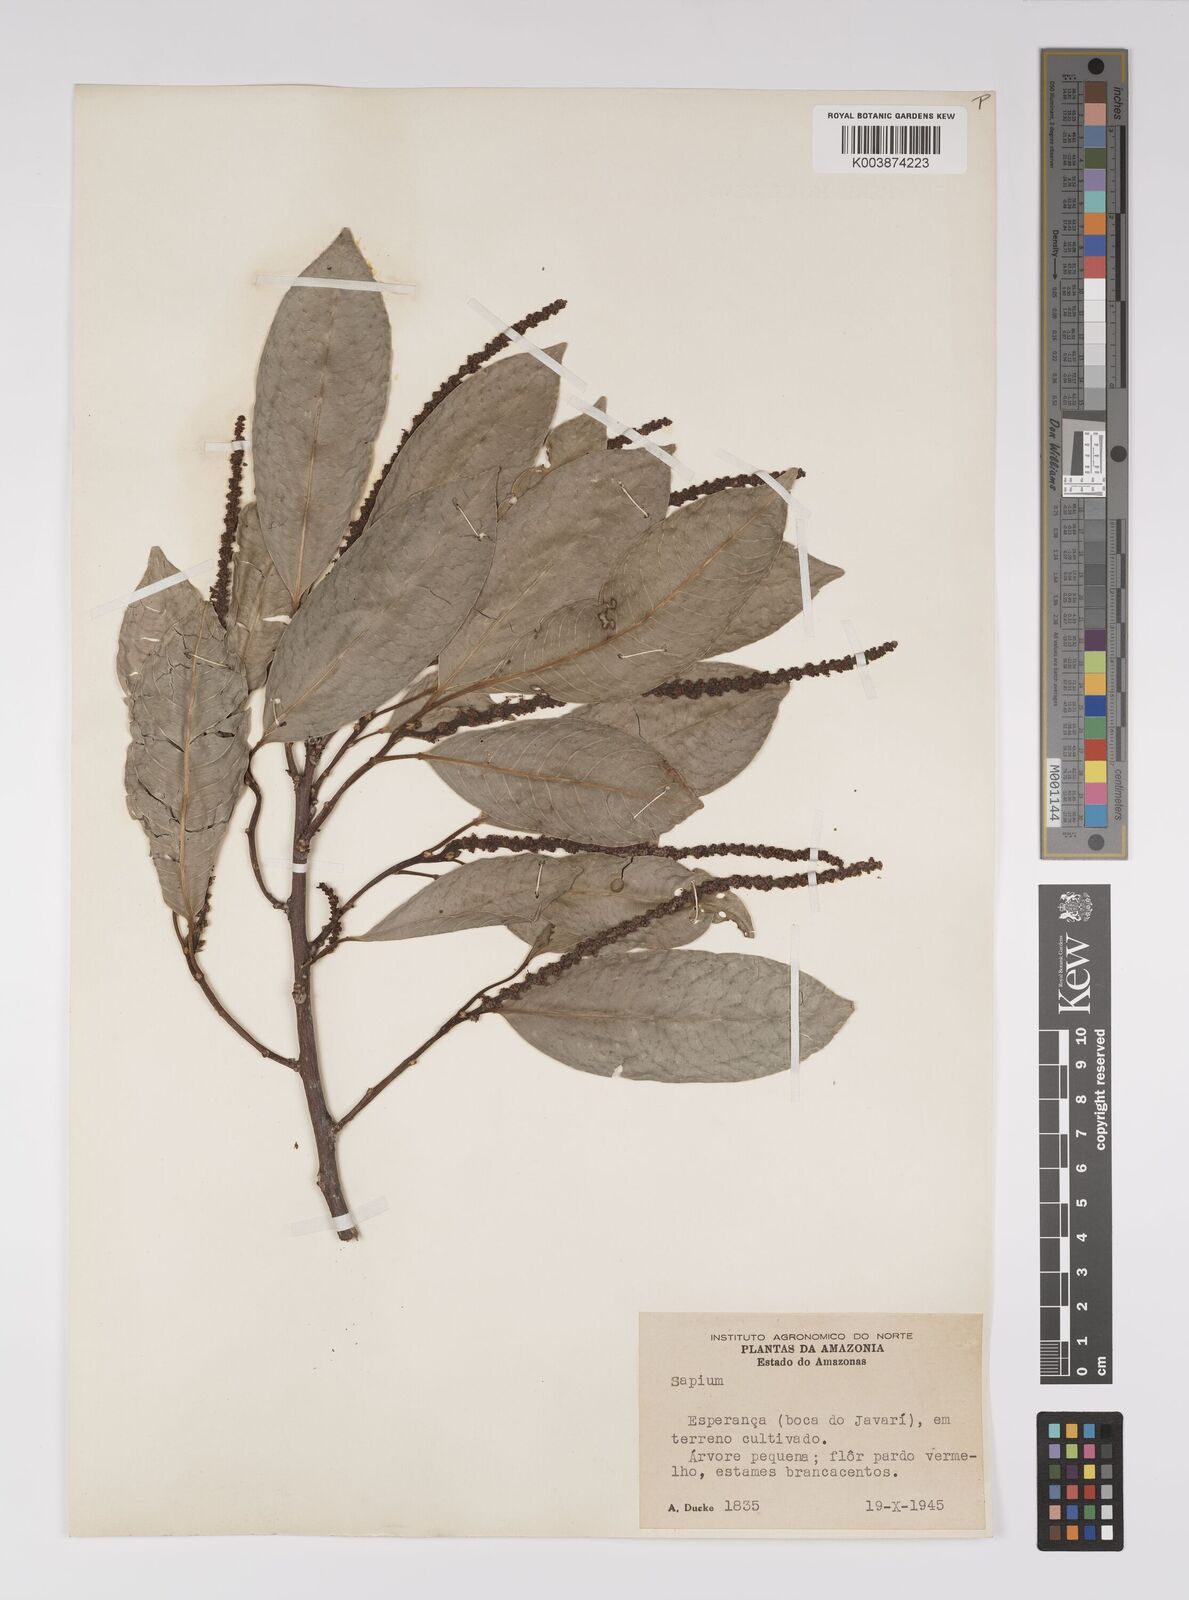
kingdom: Plantae
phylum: Tracheophyta
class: Magnoliopsida
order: Malpighiales
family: Euphorbiaceae
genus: Sapium
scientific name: Sapium
